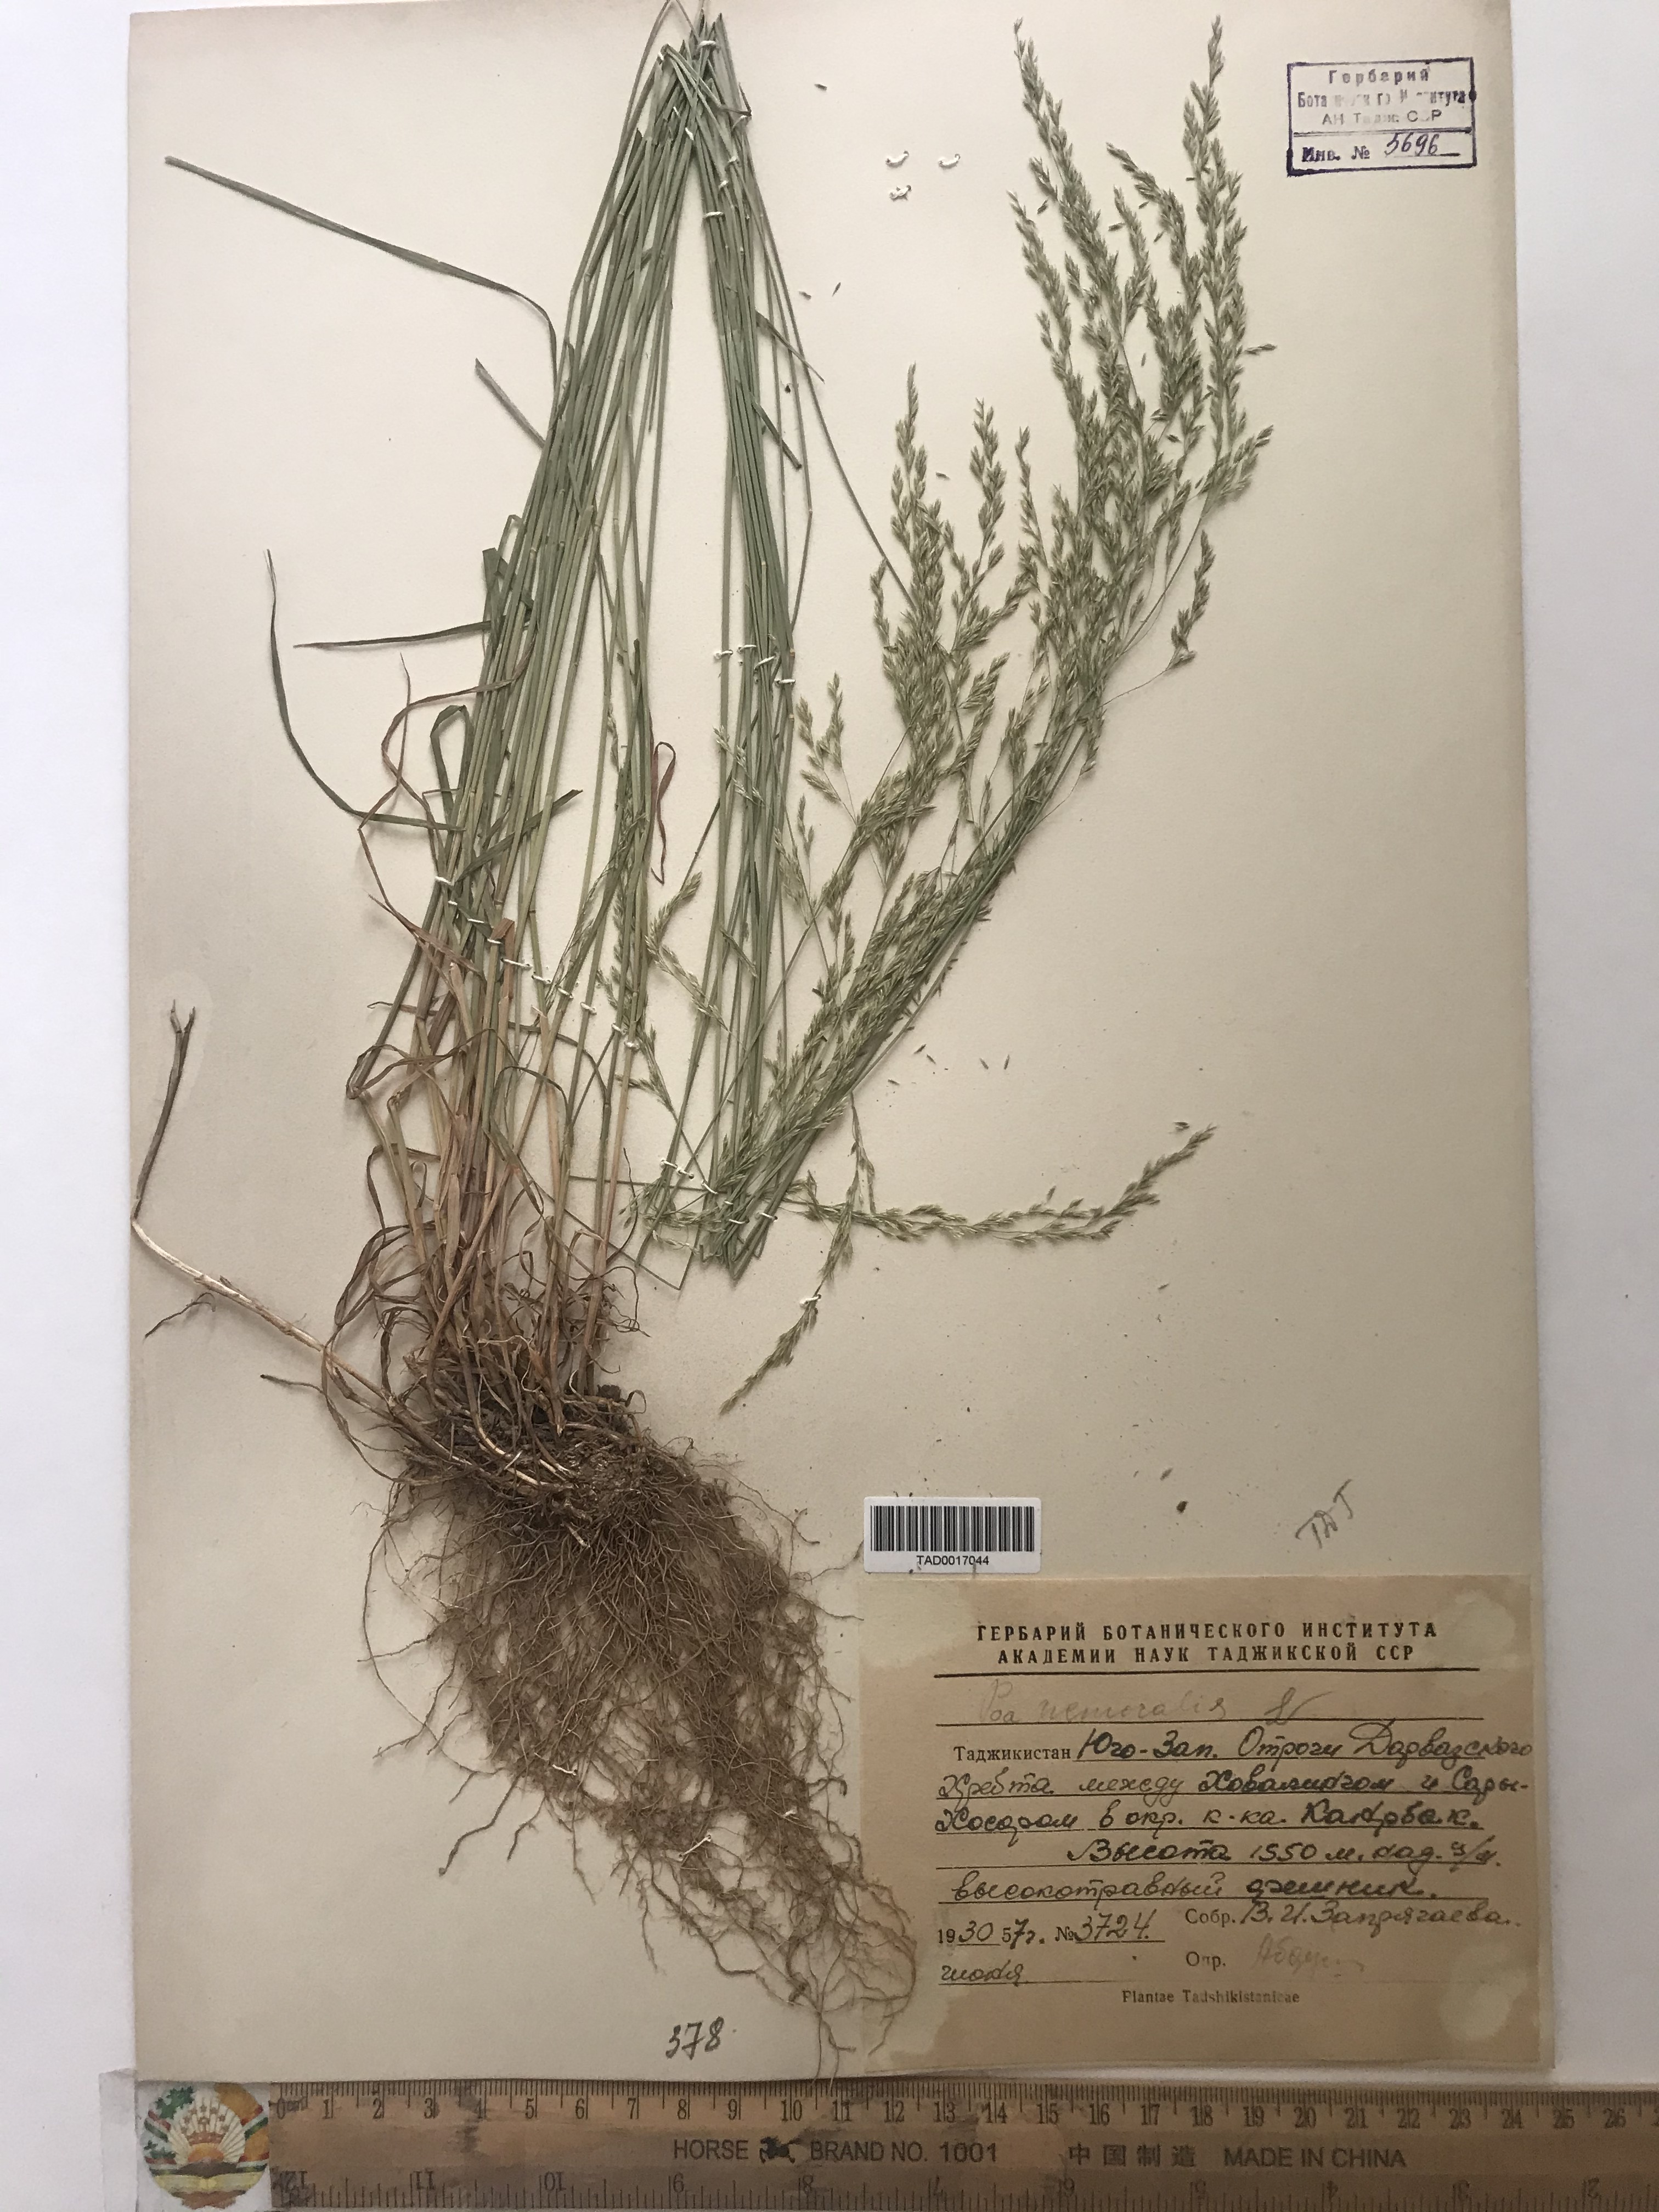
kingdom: Plantae
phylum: Tracheophyta
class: Liliopsida
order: Poales
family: Poaceae
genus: Poa
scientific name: Poa nemoralis
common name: Wood bluegrass
